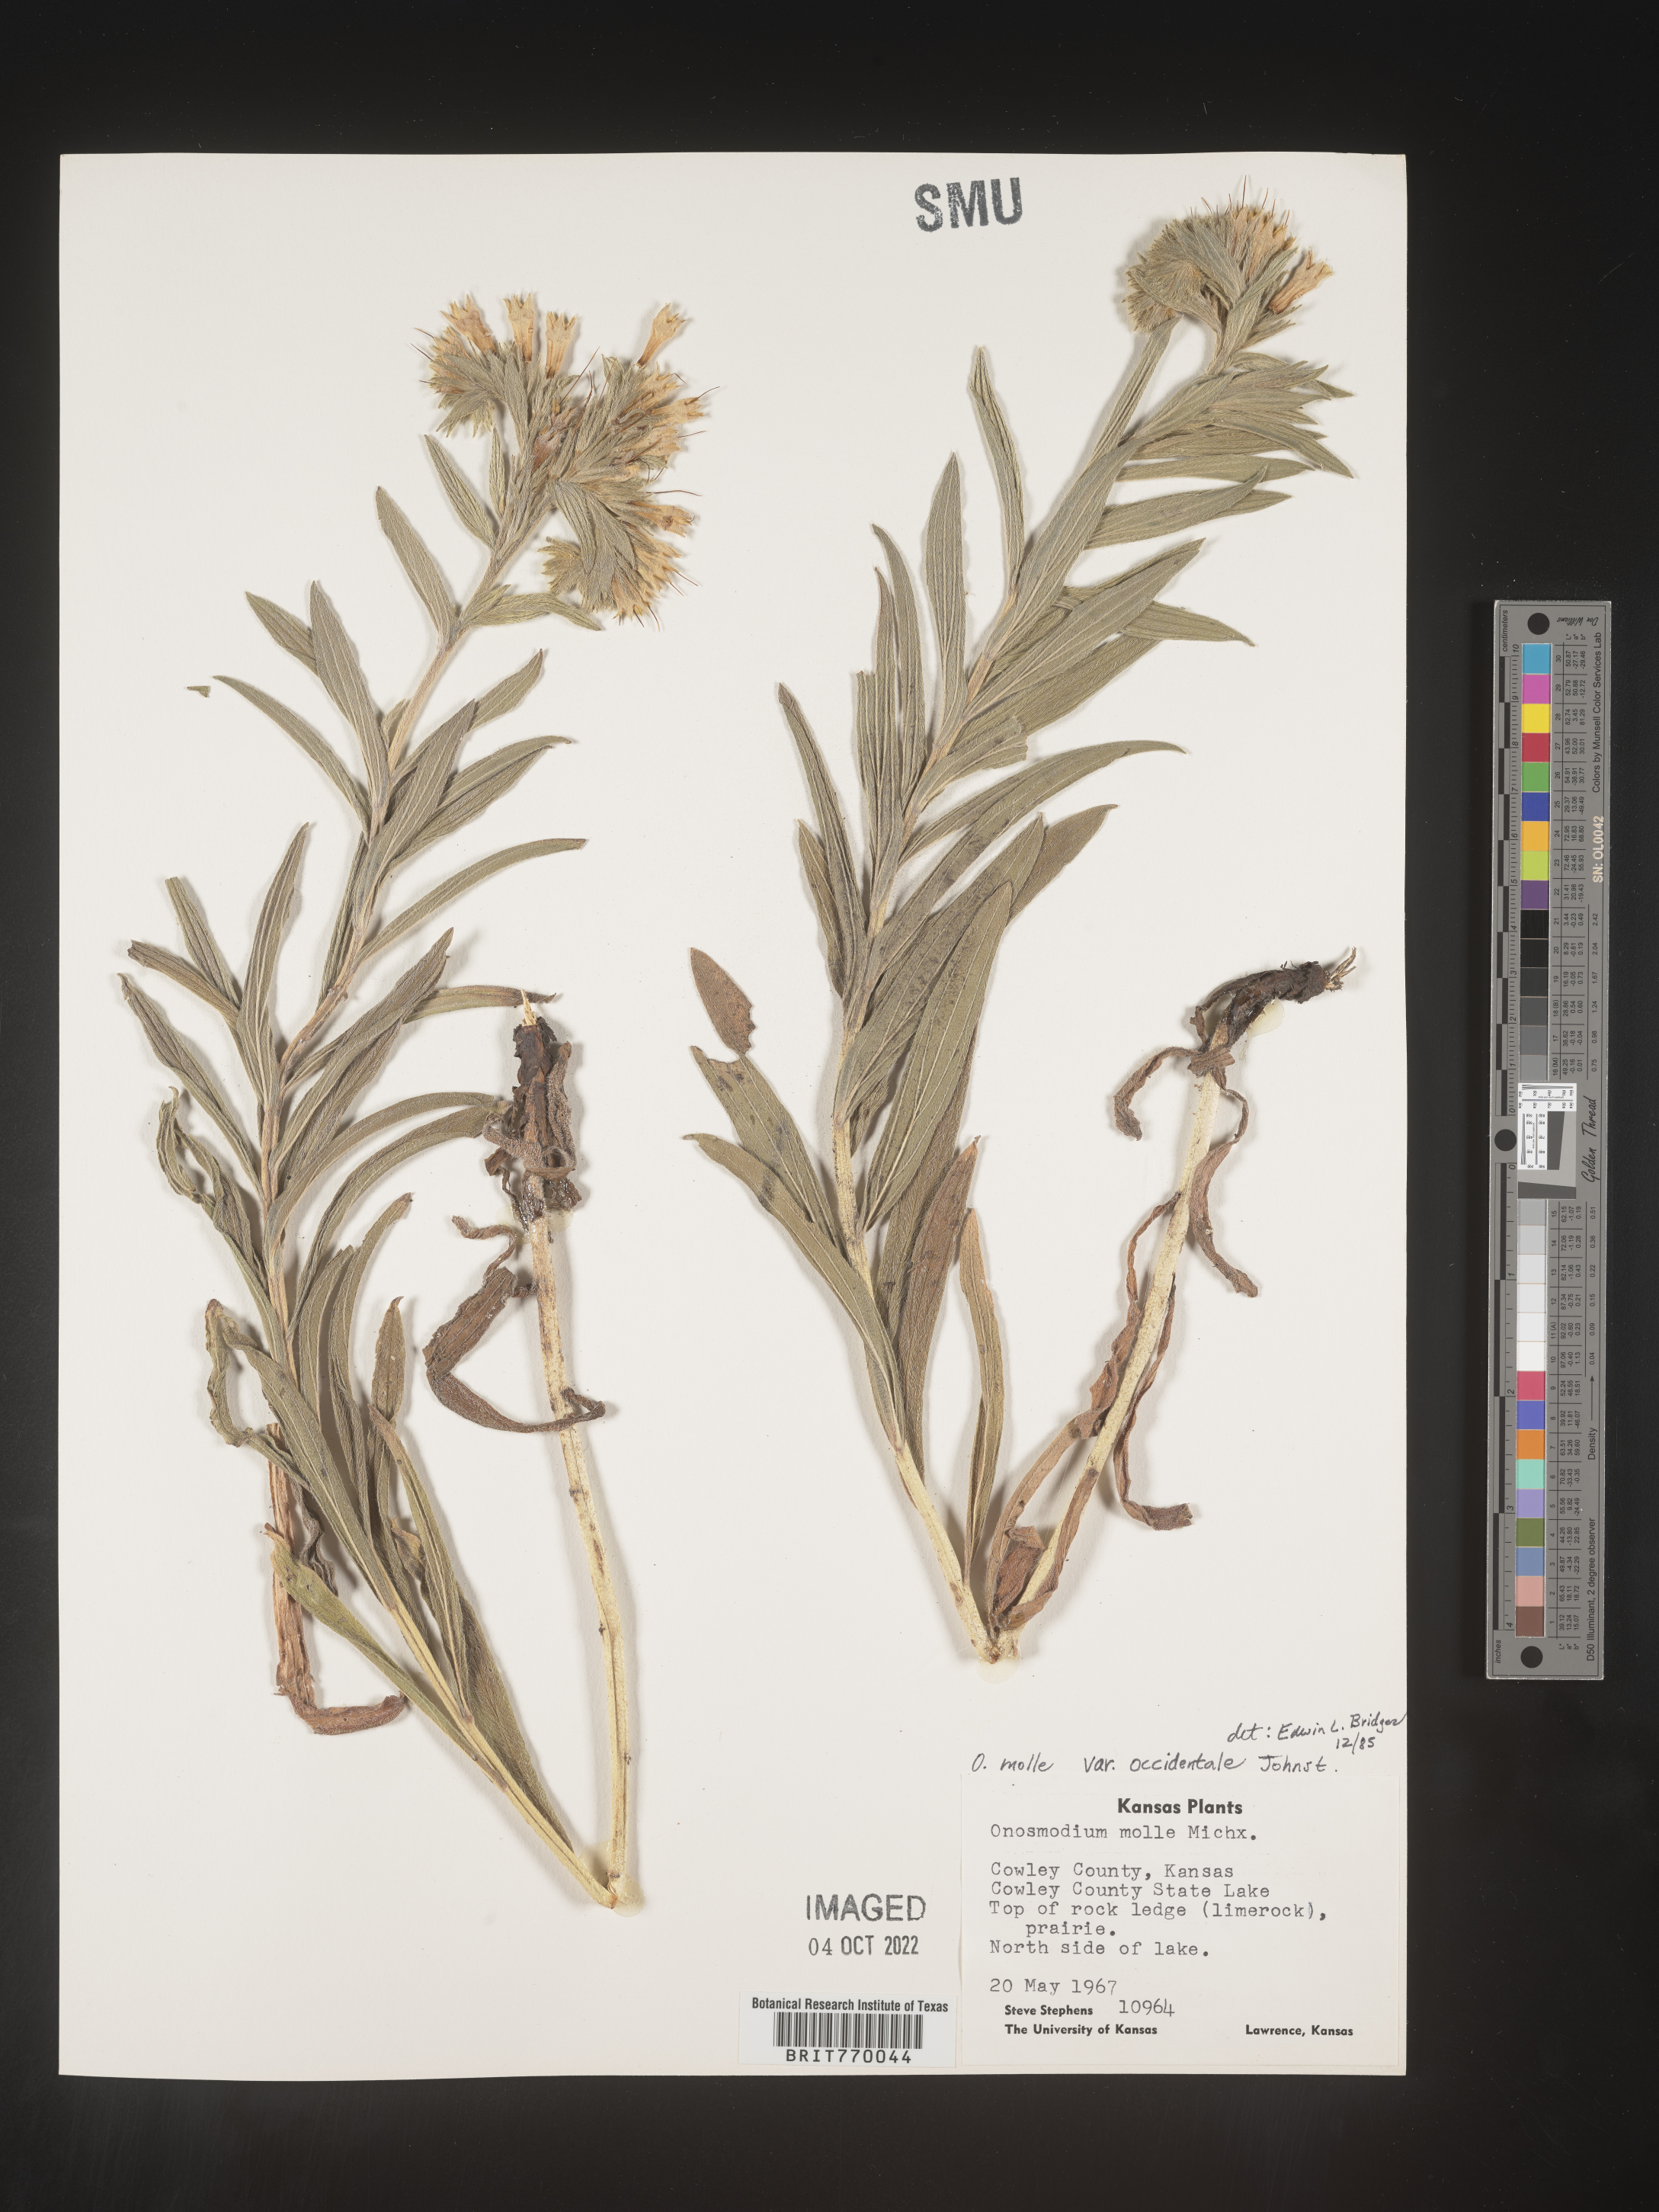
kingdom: Plantae
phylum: Tracheophyta
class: Magnoliopsida
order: Boraginales
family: Boraginaceae
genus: Lithospermum
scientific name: Lithospermum occidentale
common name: Western false gromwell
